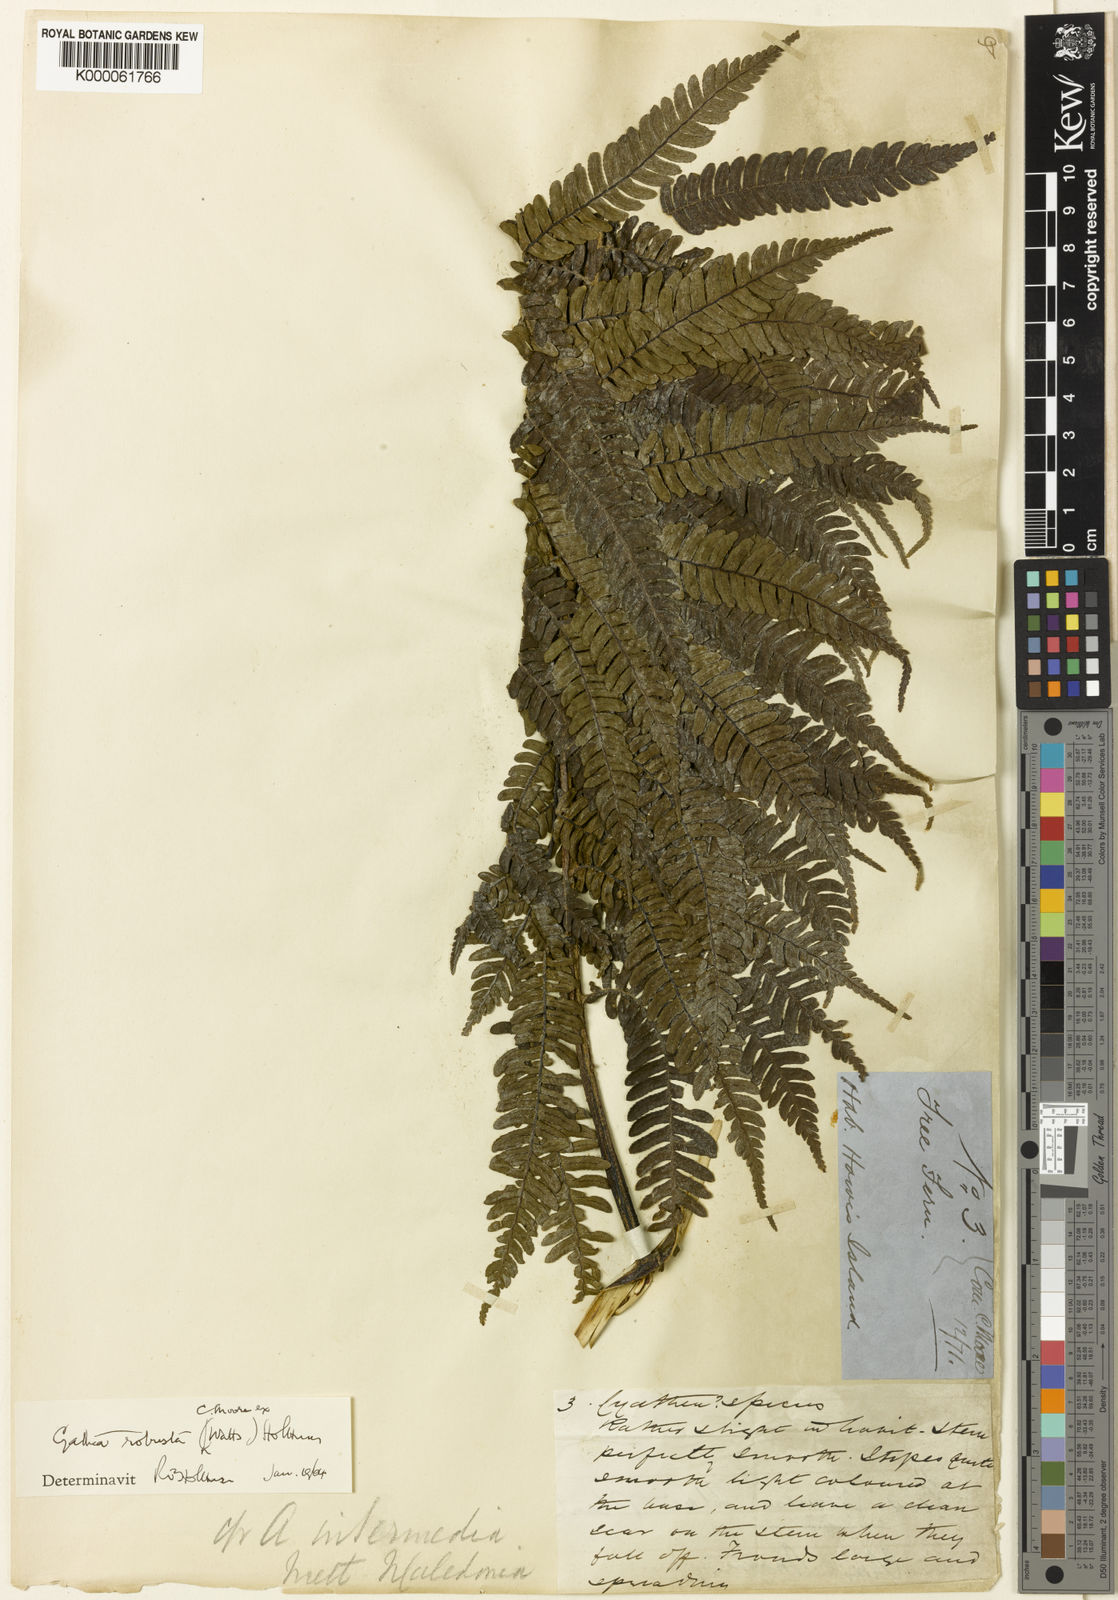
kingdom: Plantae
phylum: Tracheophyta
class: Polypodiopsida
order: Cyatheales
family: Cyatheaceae
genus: Sphaeropteris
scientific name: Sphaeropteris robusta
